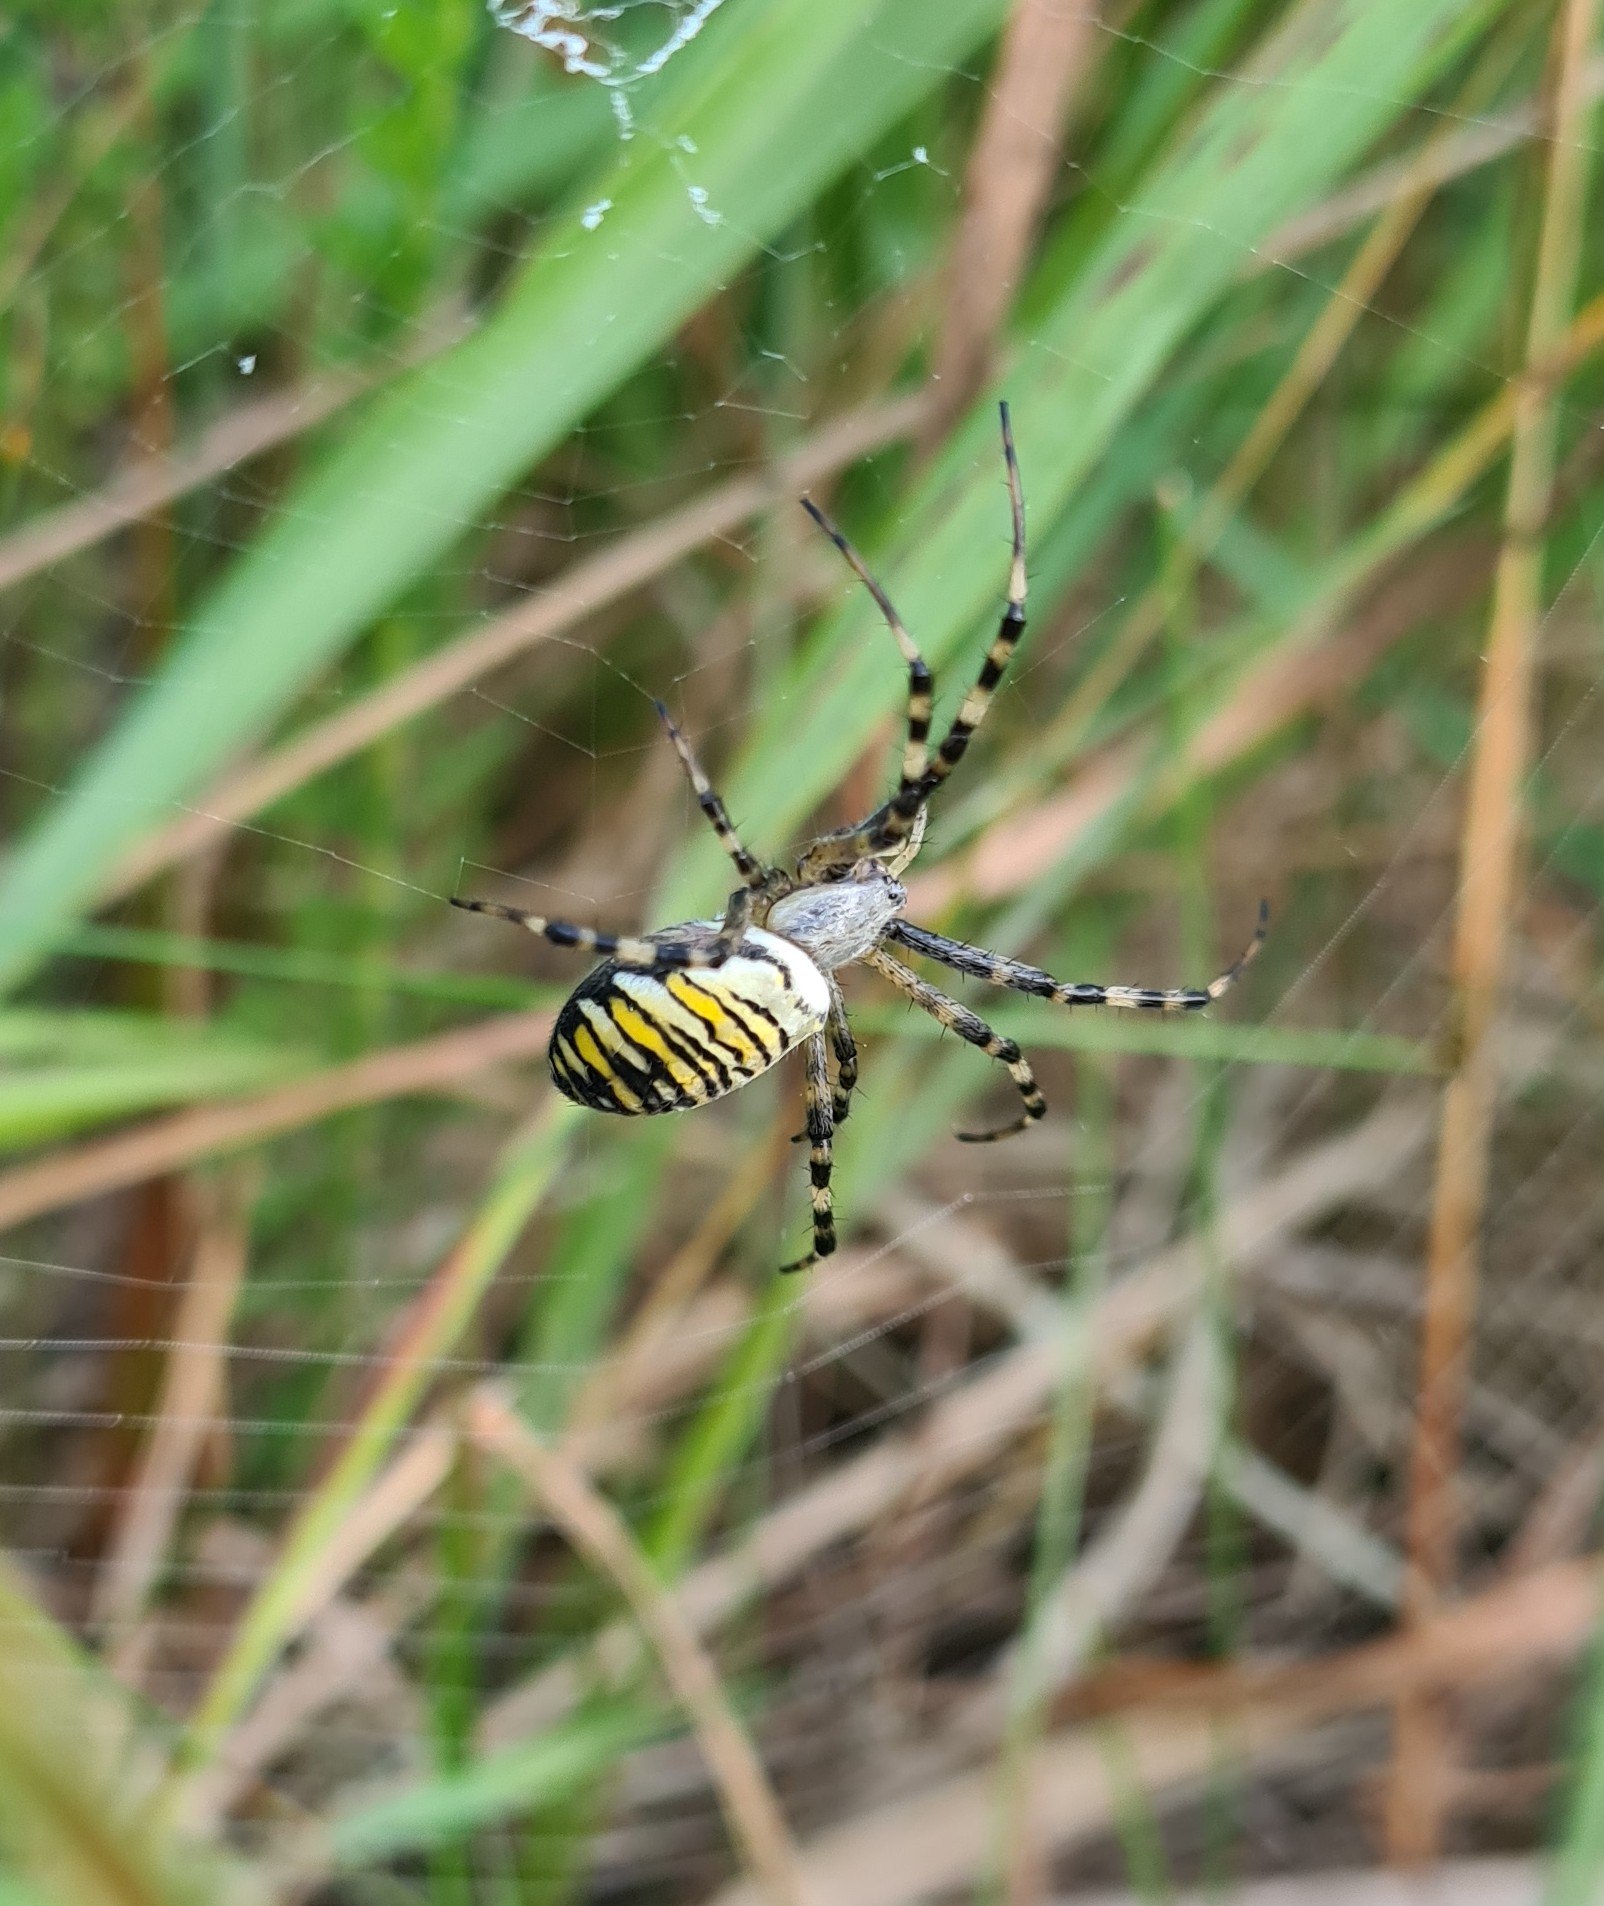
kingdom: Animalia
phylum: Arthropoda
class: Arachnida
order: Araneae
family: Araneidae
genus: Argiope
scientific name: Argiope bruennichi
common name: Hvepseedderkop
